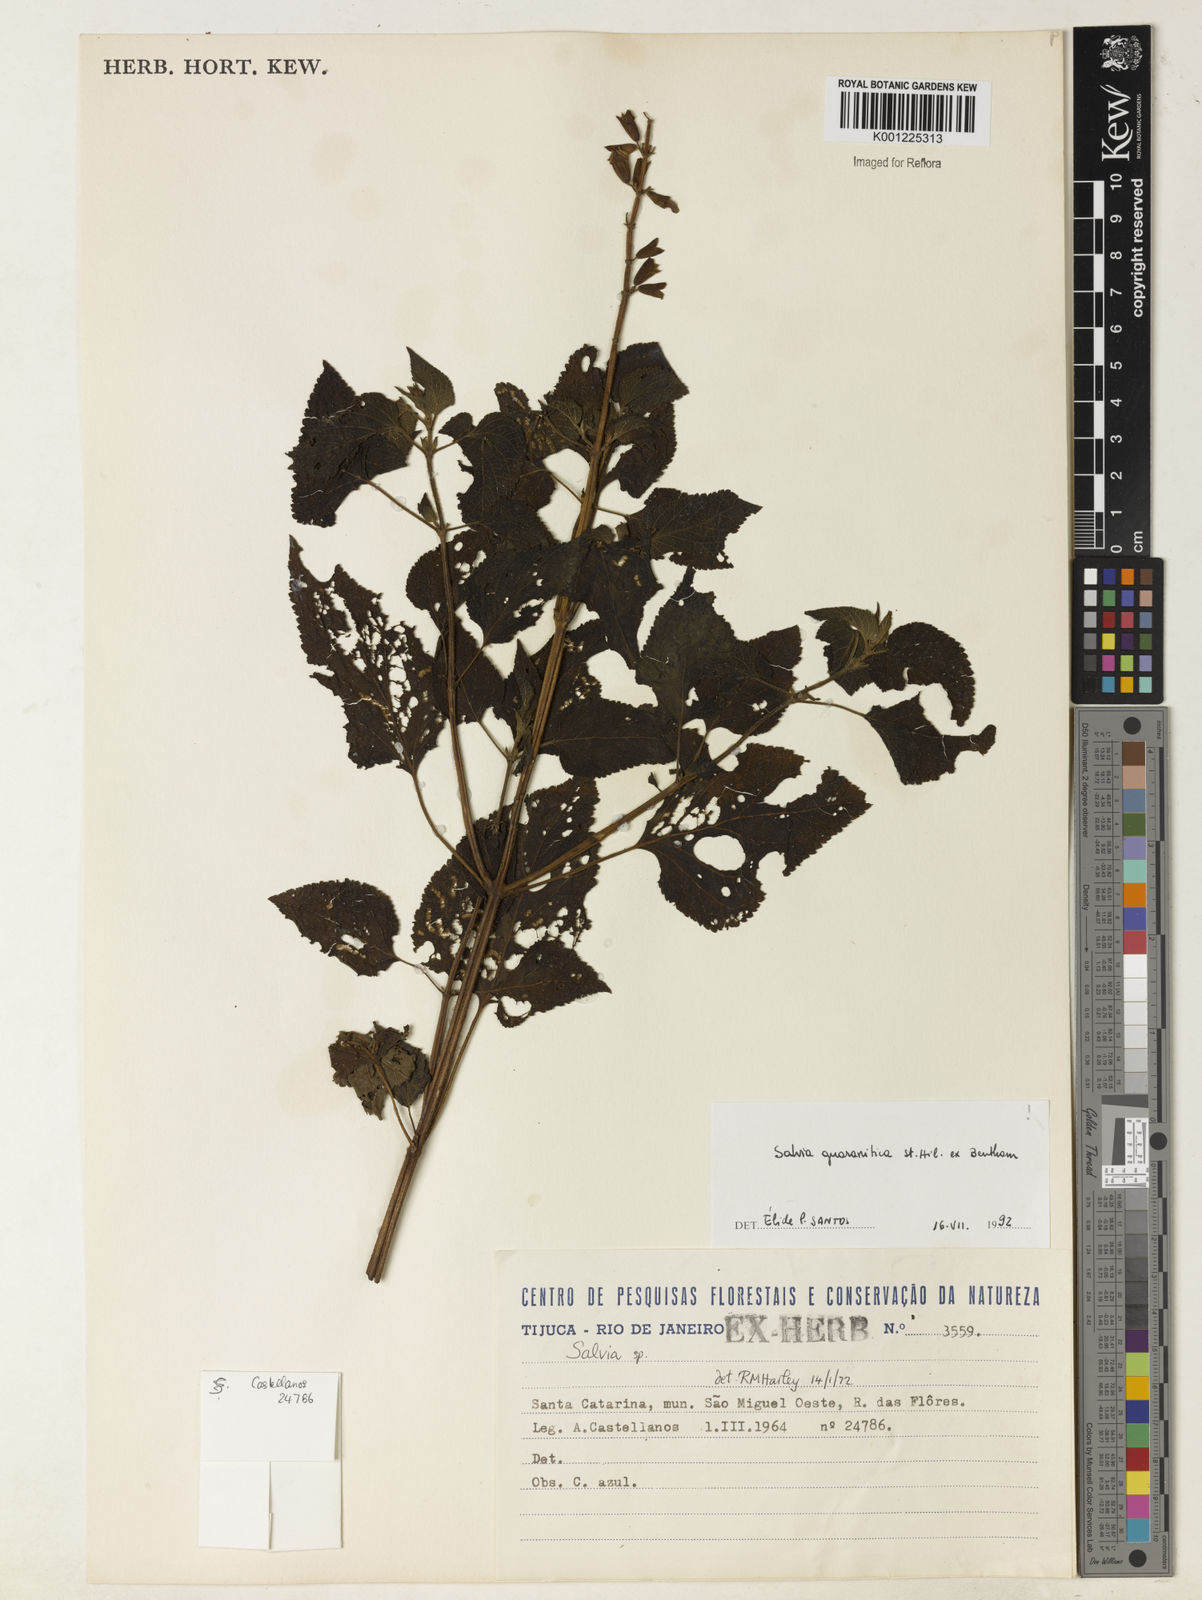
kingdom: Plantae
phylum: Tracheophyta
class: Magnoliopsida
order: Lamiales
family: Lamiaceae
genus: Salvia
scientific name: Salvia guaranitica
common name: Anise-scented sage
